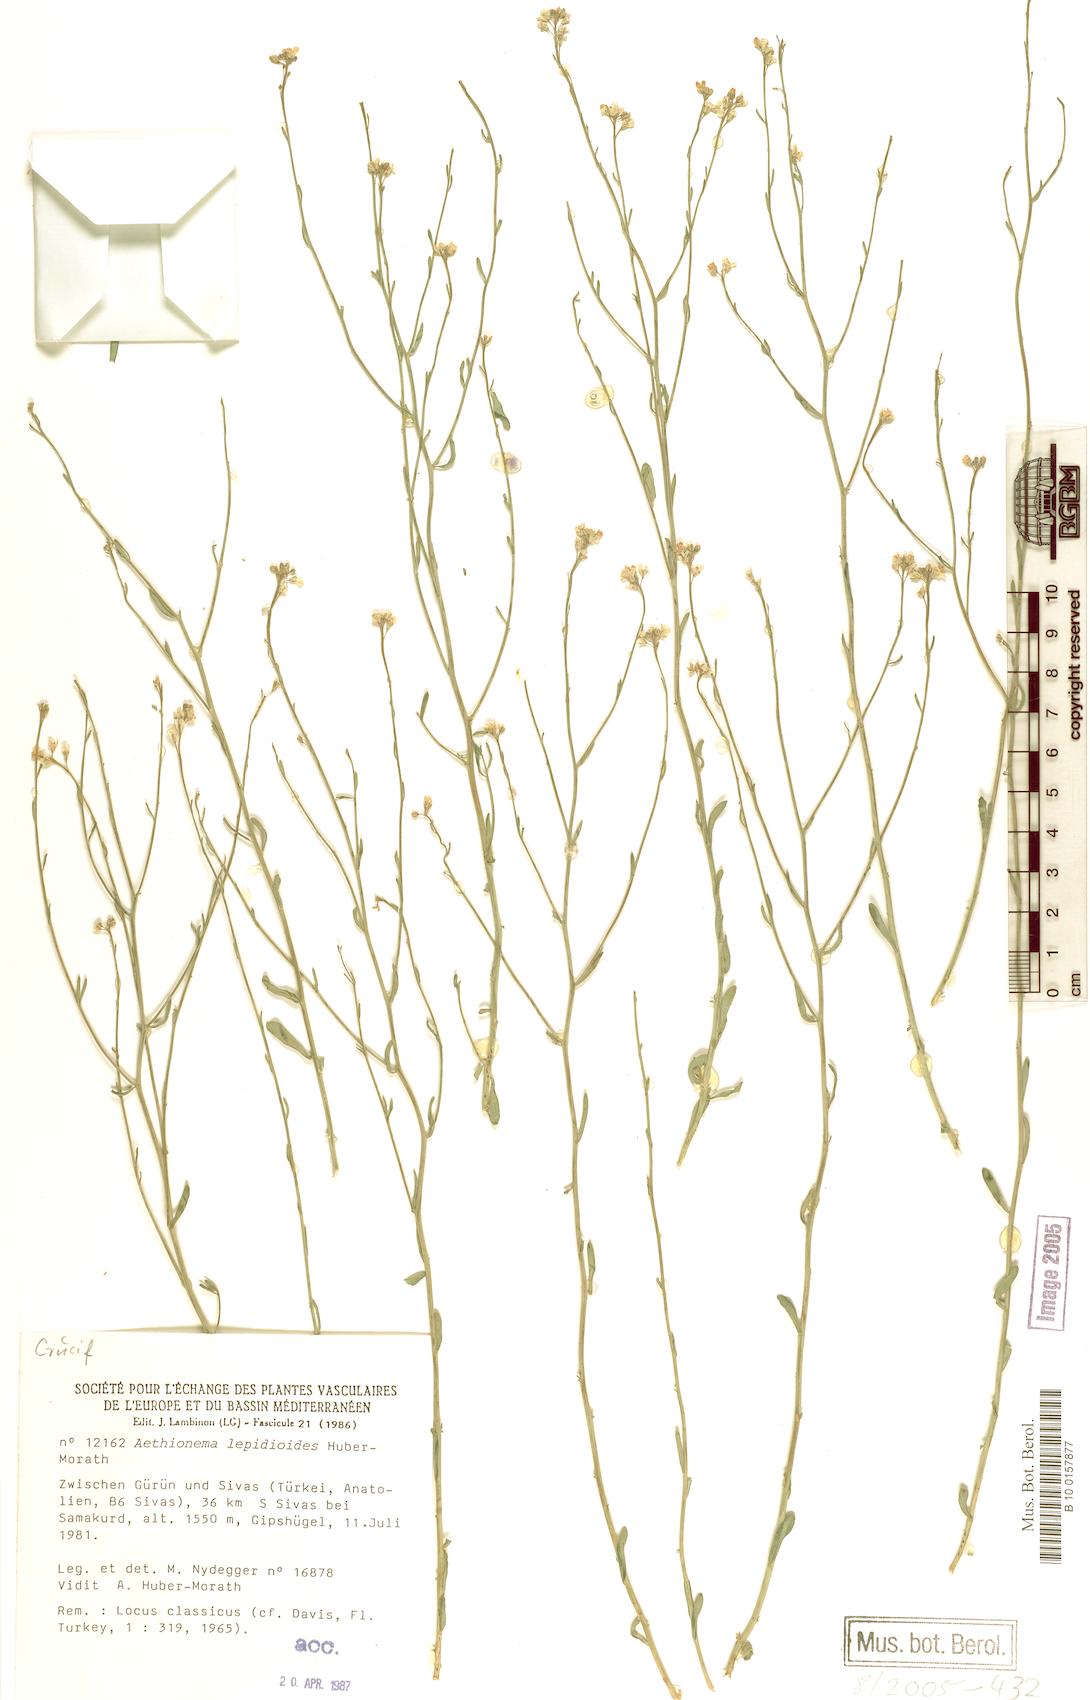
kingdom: Plantae
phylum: Tracheophyta
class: Magnoliopsida
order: Brassicales
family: Brassicaceae
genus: Aethionema
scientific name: Aethionema lepidioides
